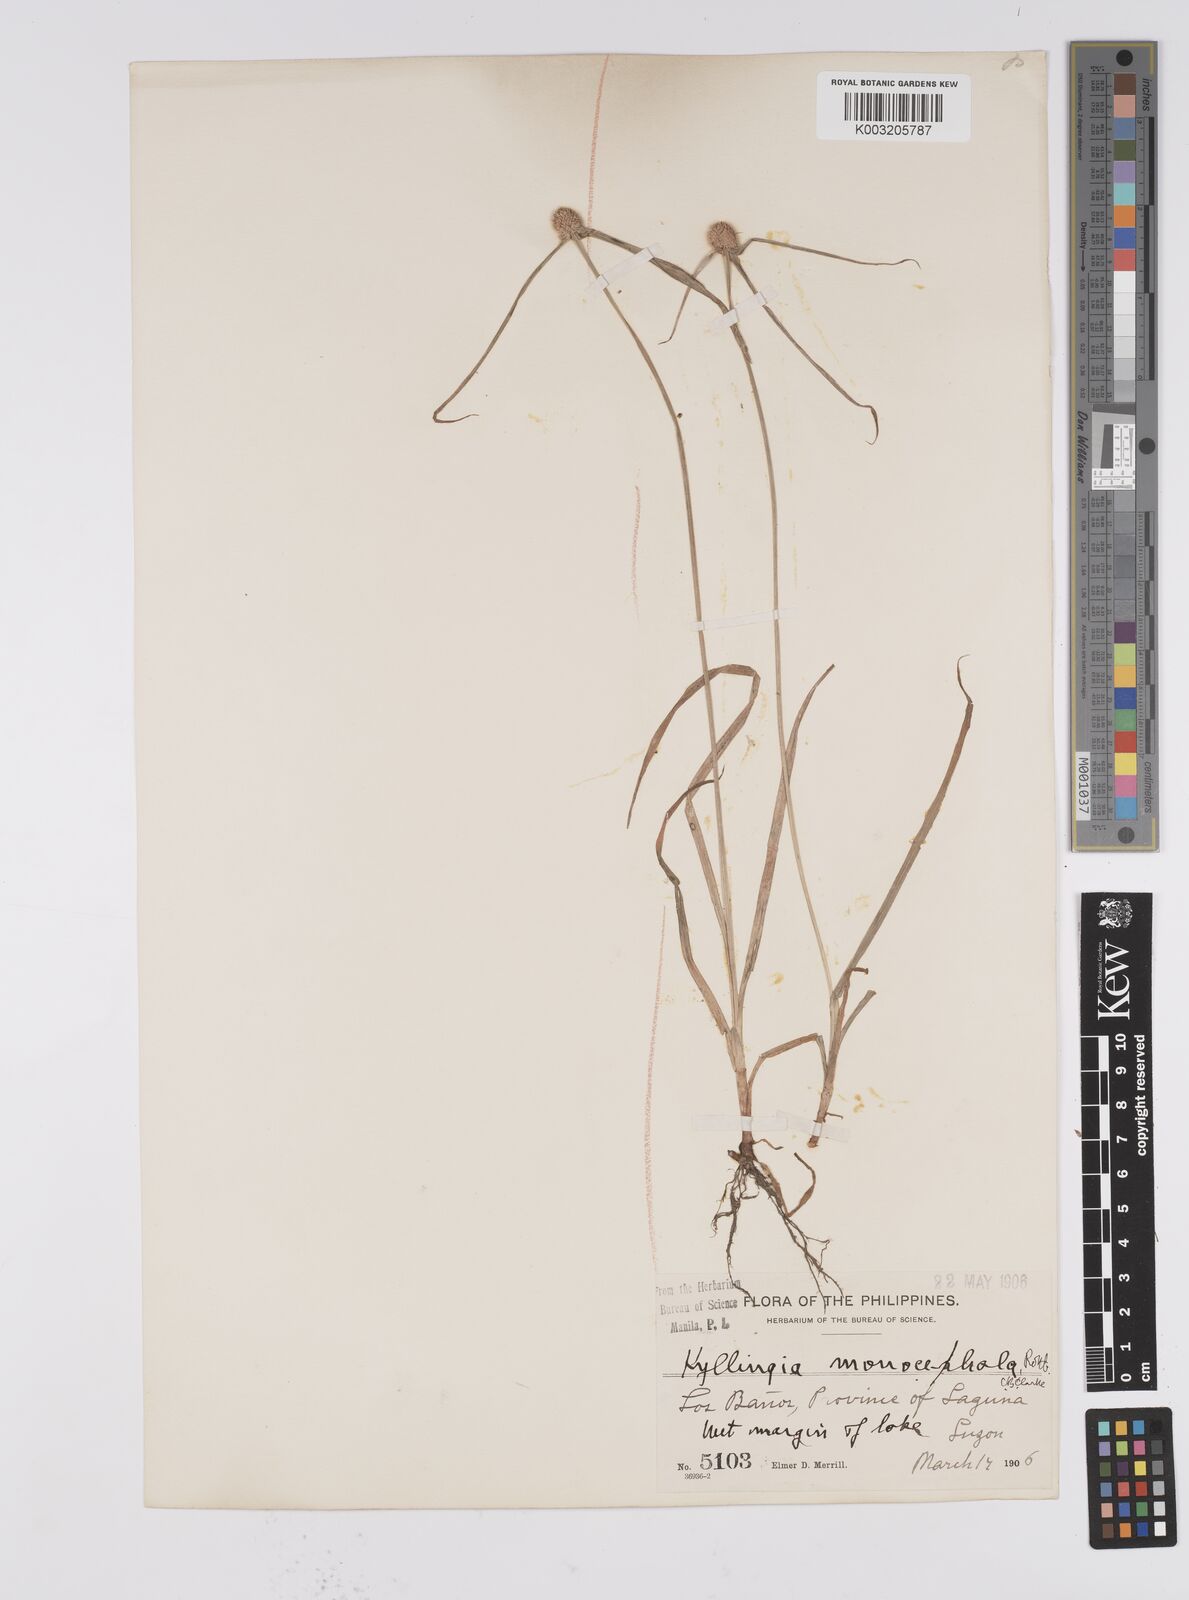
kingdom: Plantae
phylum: Tracheophyta
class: Liliopsida
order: Poales
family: Cyperaceae
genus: Cyperus
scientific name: Cyperus nemoralis
